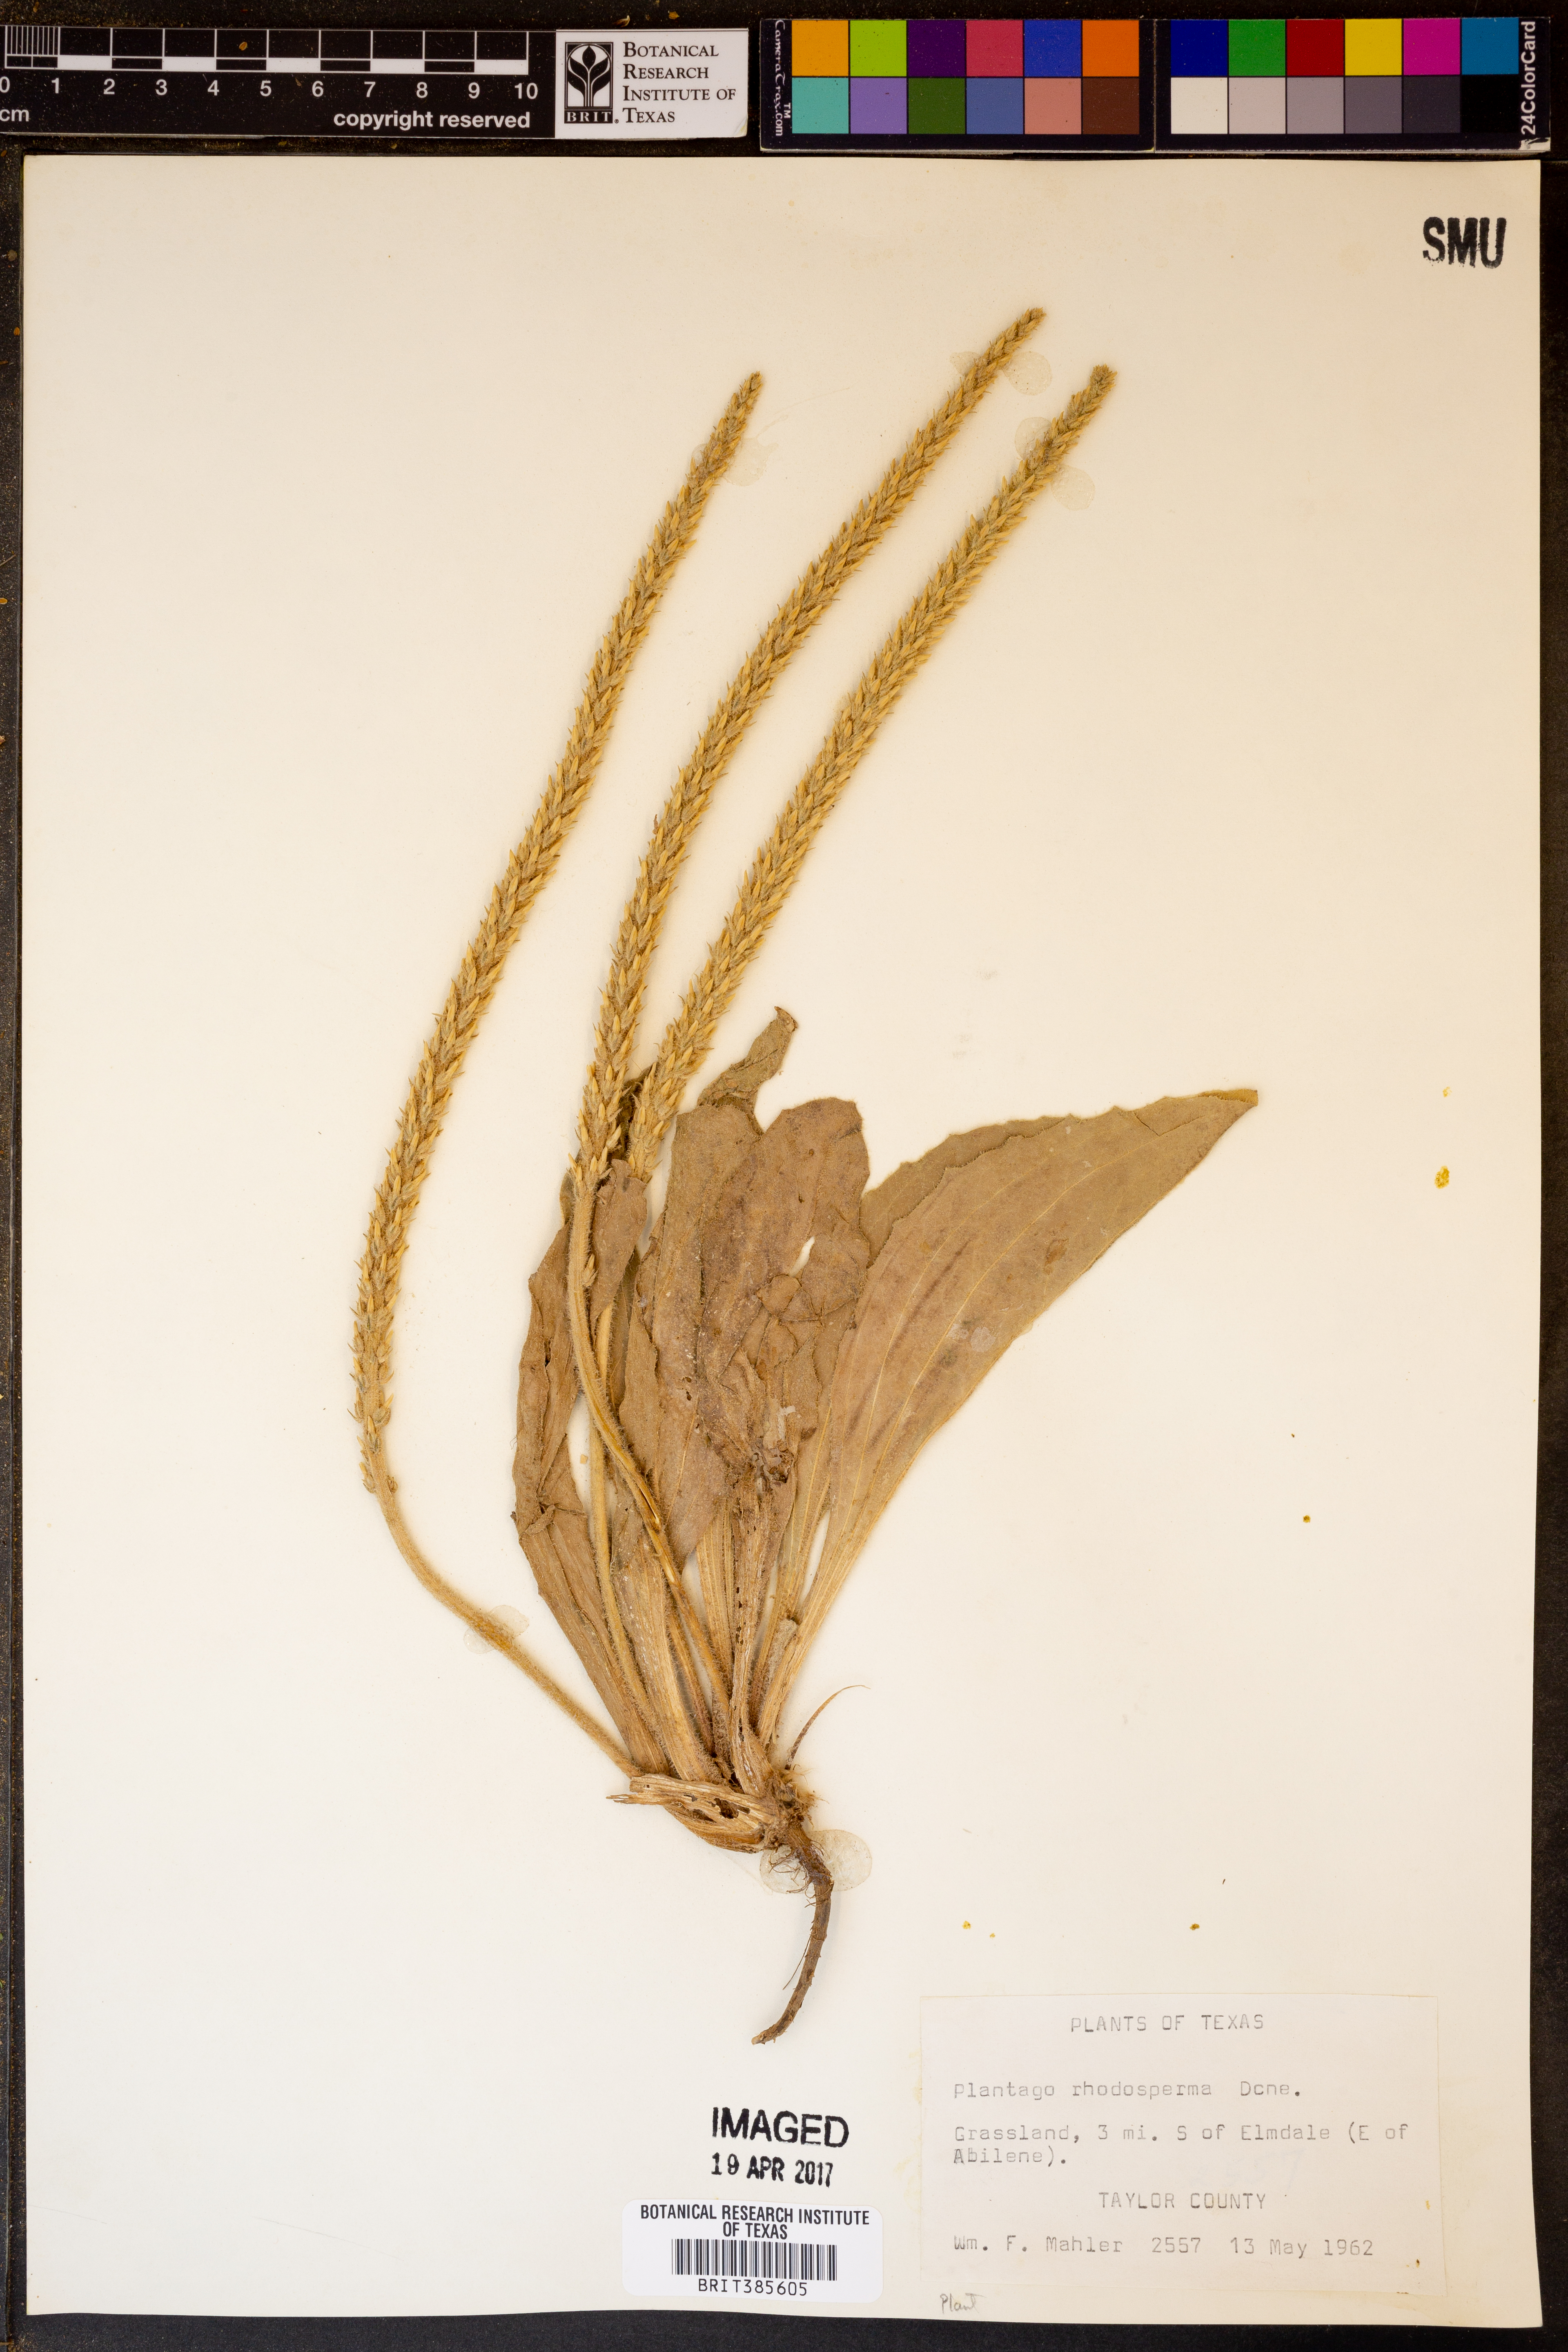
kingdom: Plantae
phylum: Tracheophyta
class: Magnoliopsida
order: Lamiales
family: Plantaginaceae
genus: Plantago
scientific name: Plantago rhodosperma
